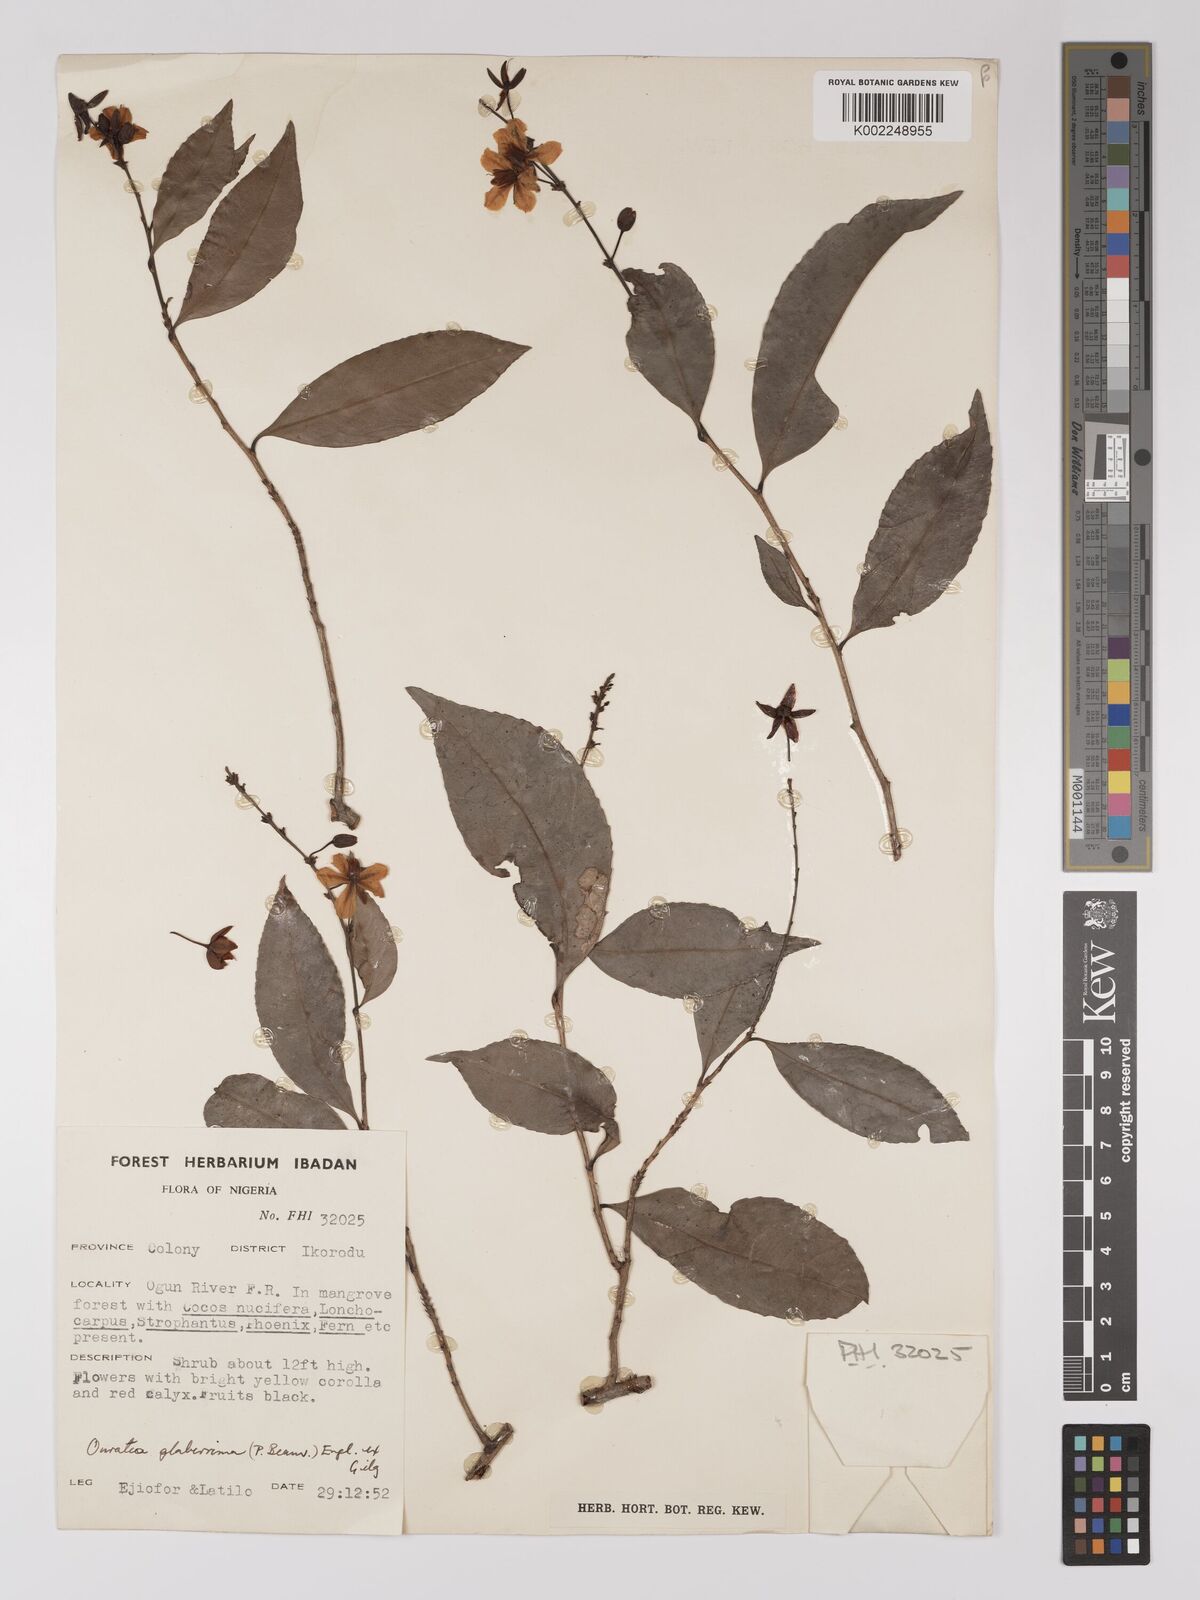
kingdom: Plantae
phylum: Tracheophyta
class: Magnoliopsida
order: Malpighiales
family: Ochnaceae
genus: Campylospermum
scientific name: Campylospermum glaberrimum
